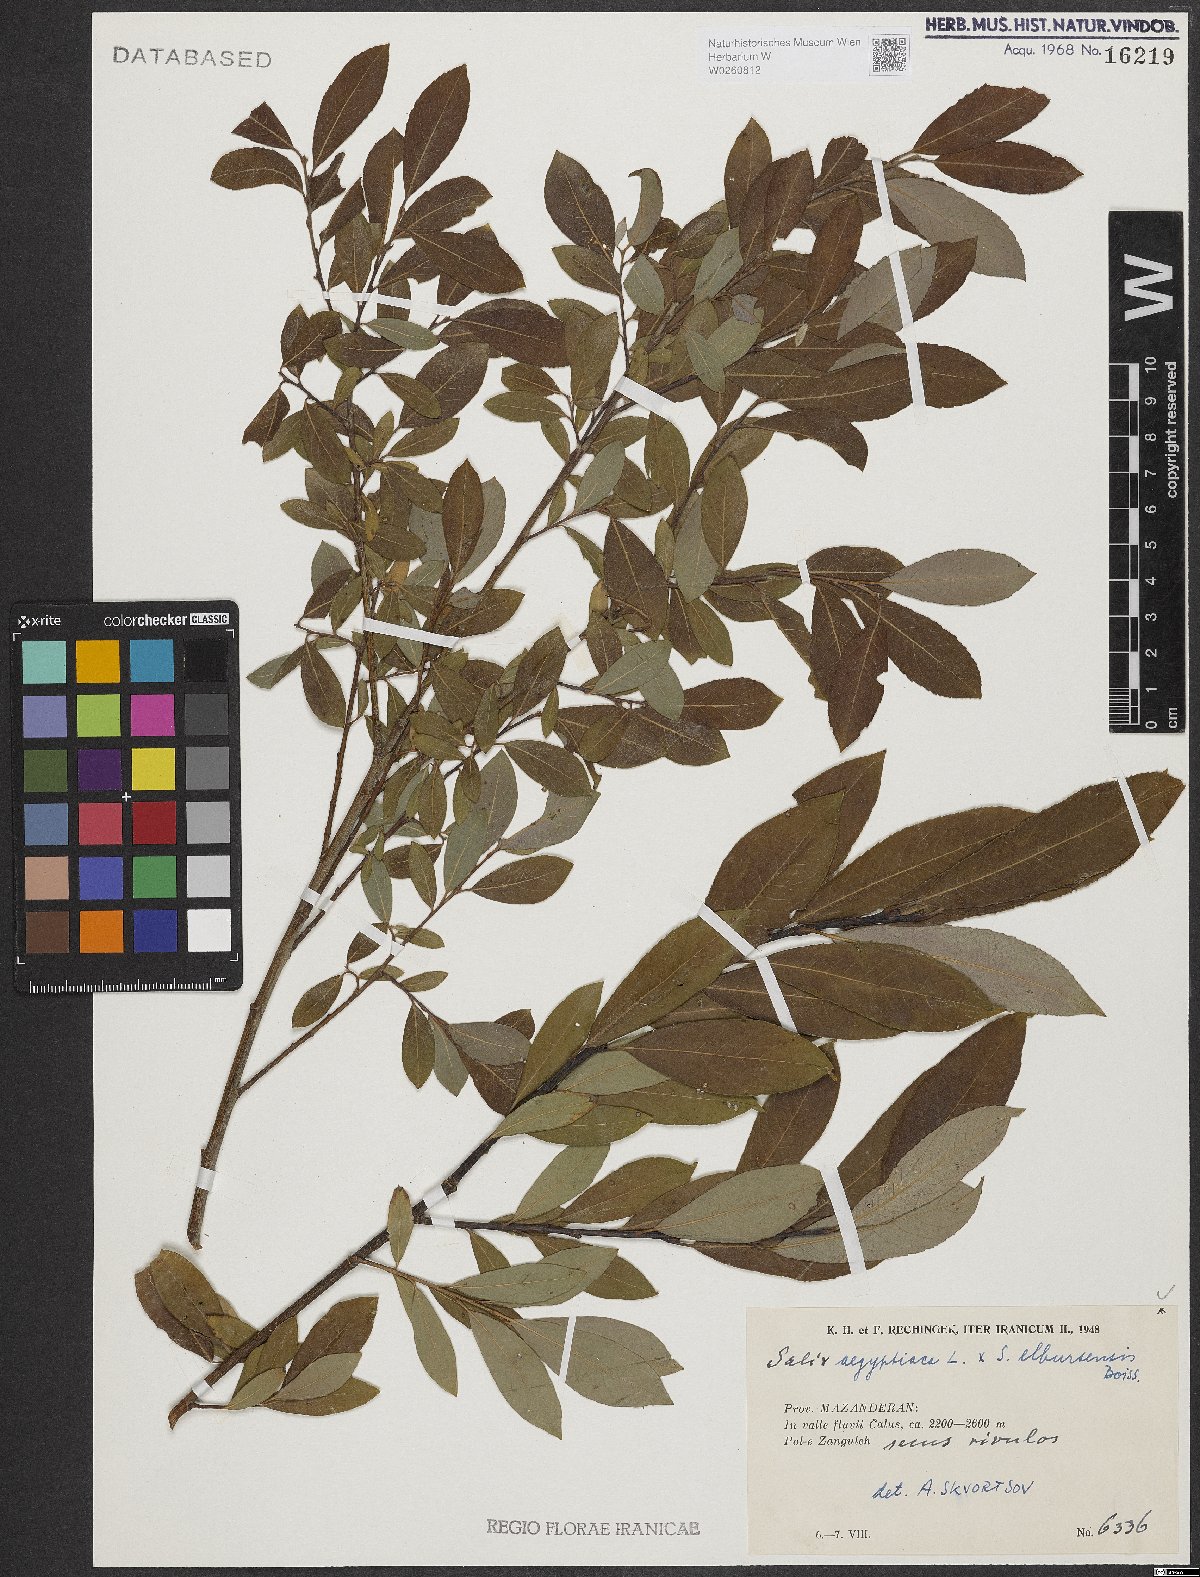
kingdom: Plantae
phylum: Tracheophyta
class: Magnoliopsida
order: Malpighiales
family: Salicaceae
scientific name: Salicaceae
